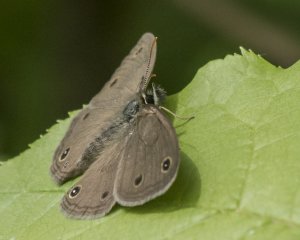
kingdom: Animalia
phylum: Arthropoda
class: Insecta
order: Lepidoptera
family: Nymphalidae
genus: Euptychia
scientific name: Euptychia cymela
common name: Little Wood Satyr
